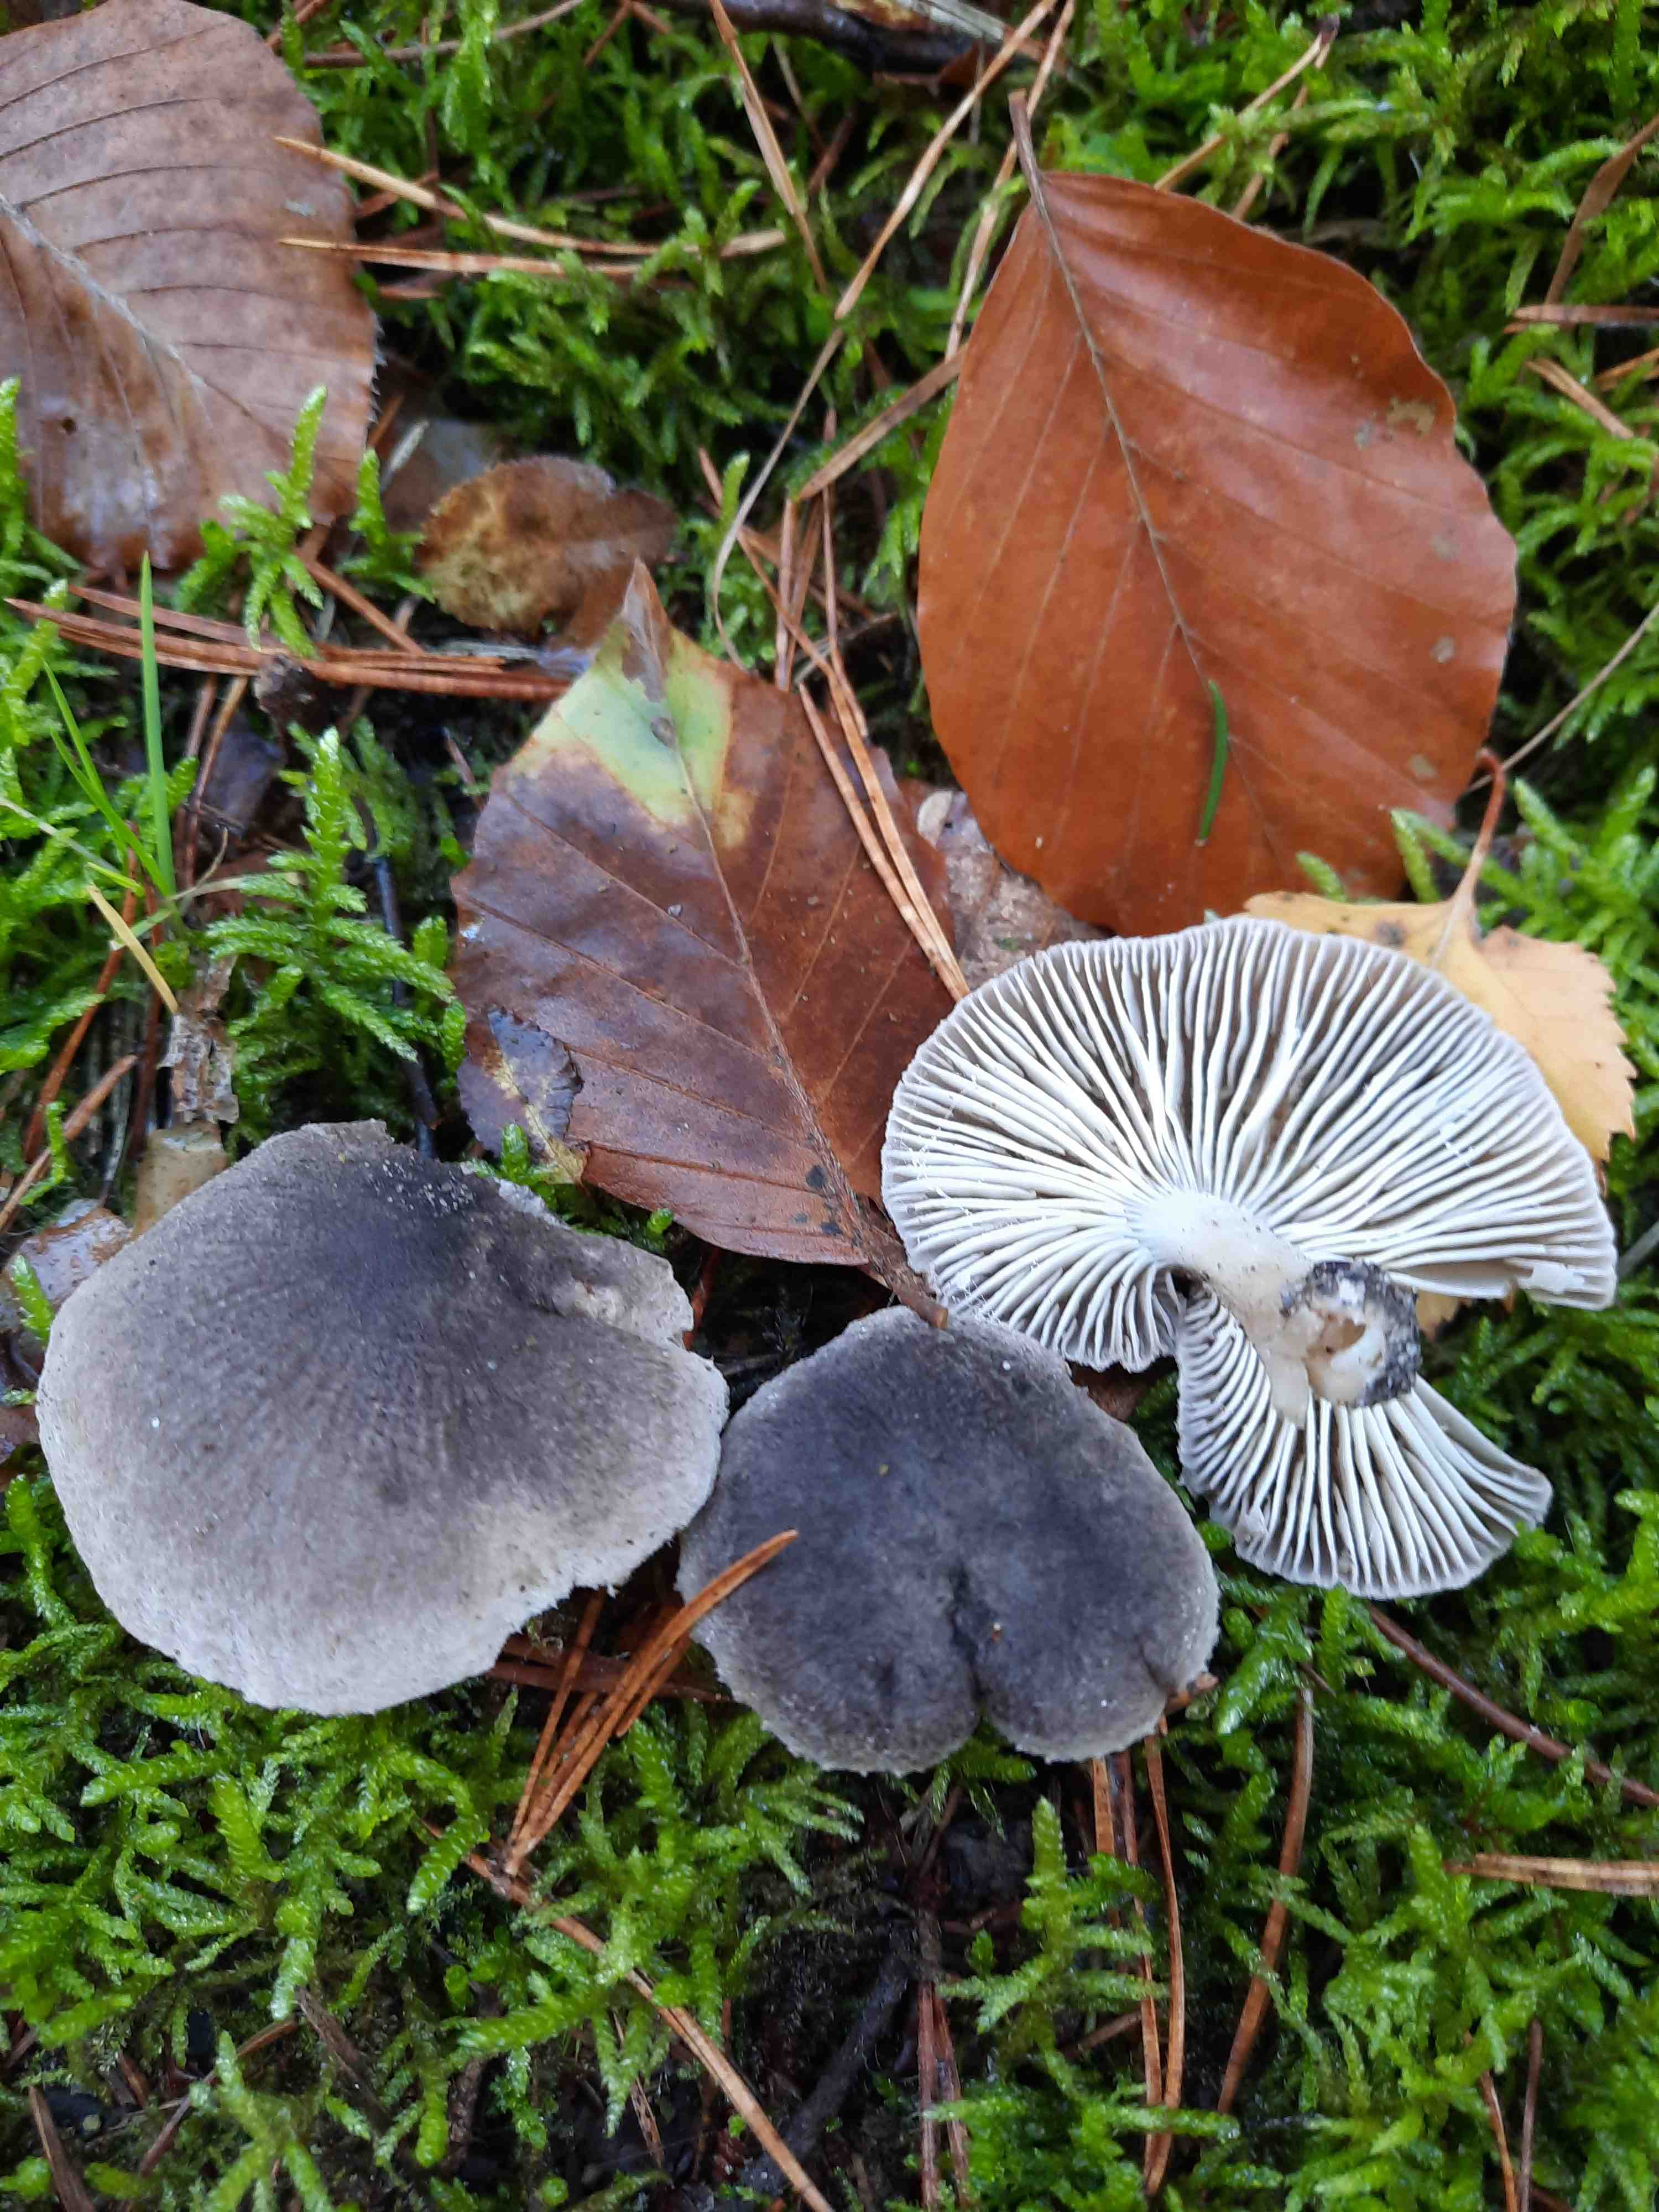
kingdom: Fungi
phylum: Basidiomycota
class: Agaricomycetes
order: Agaricales
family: Tricholomataceae
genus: Tricholoma
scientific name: Tricholoma terreum
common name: jordfarvet ridderhat
